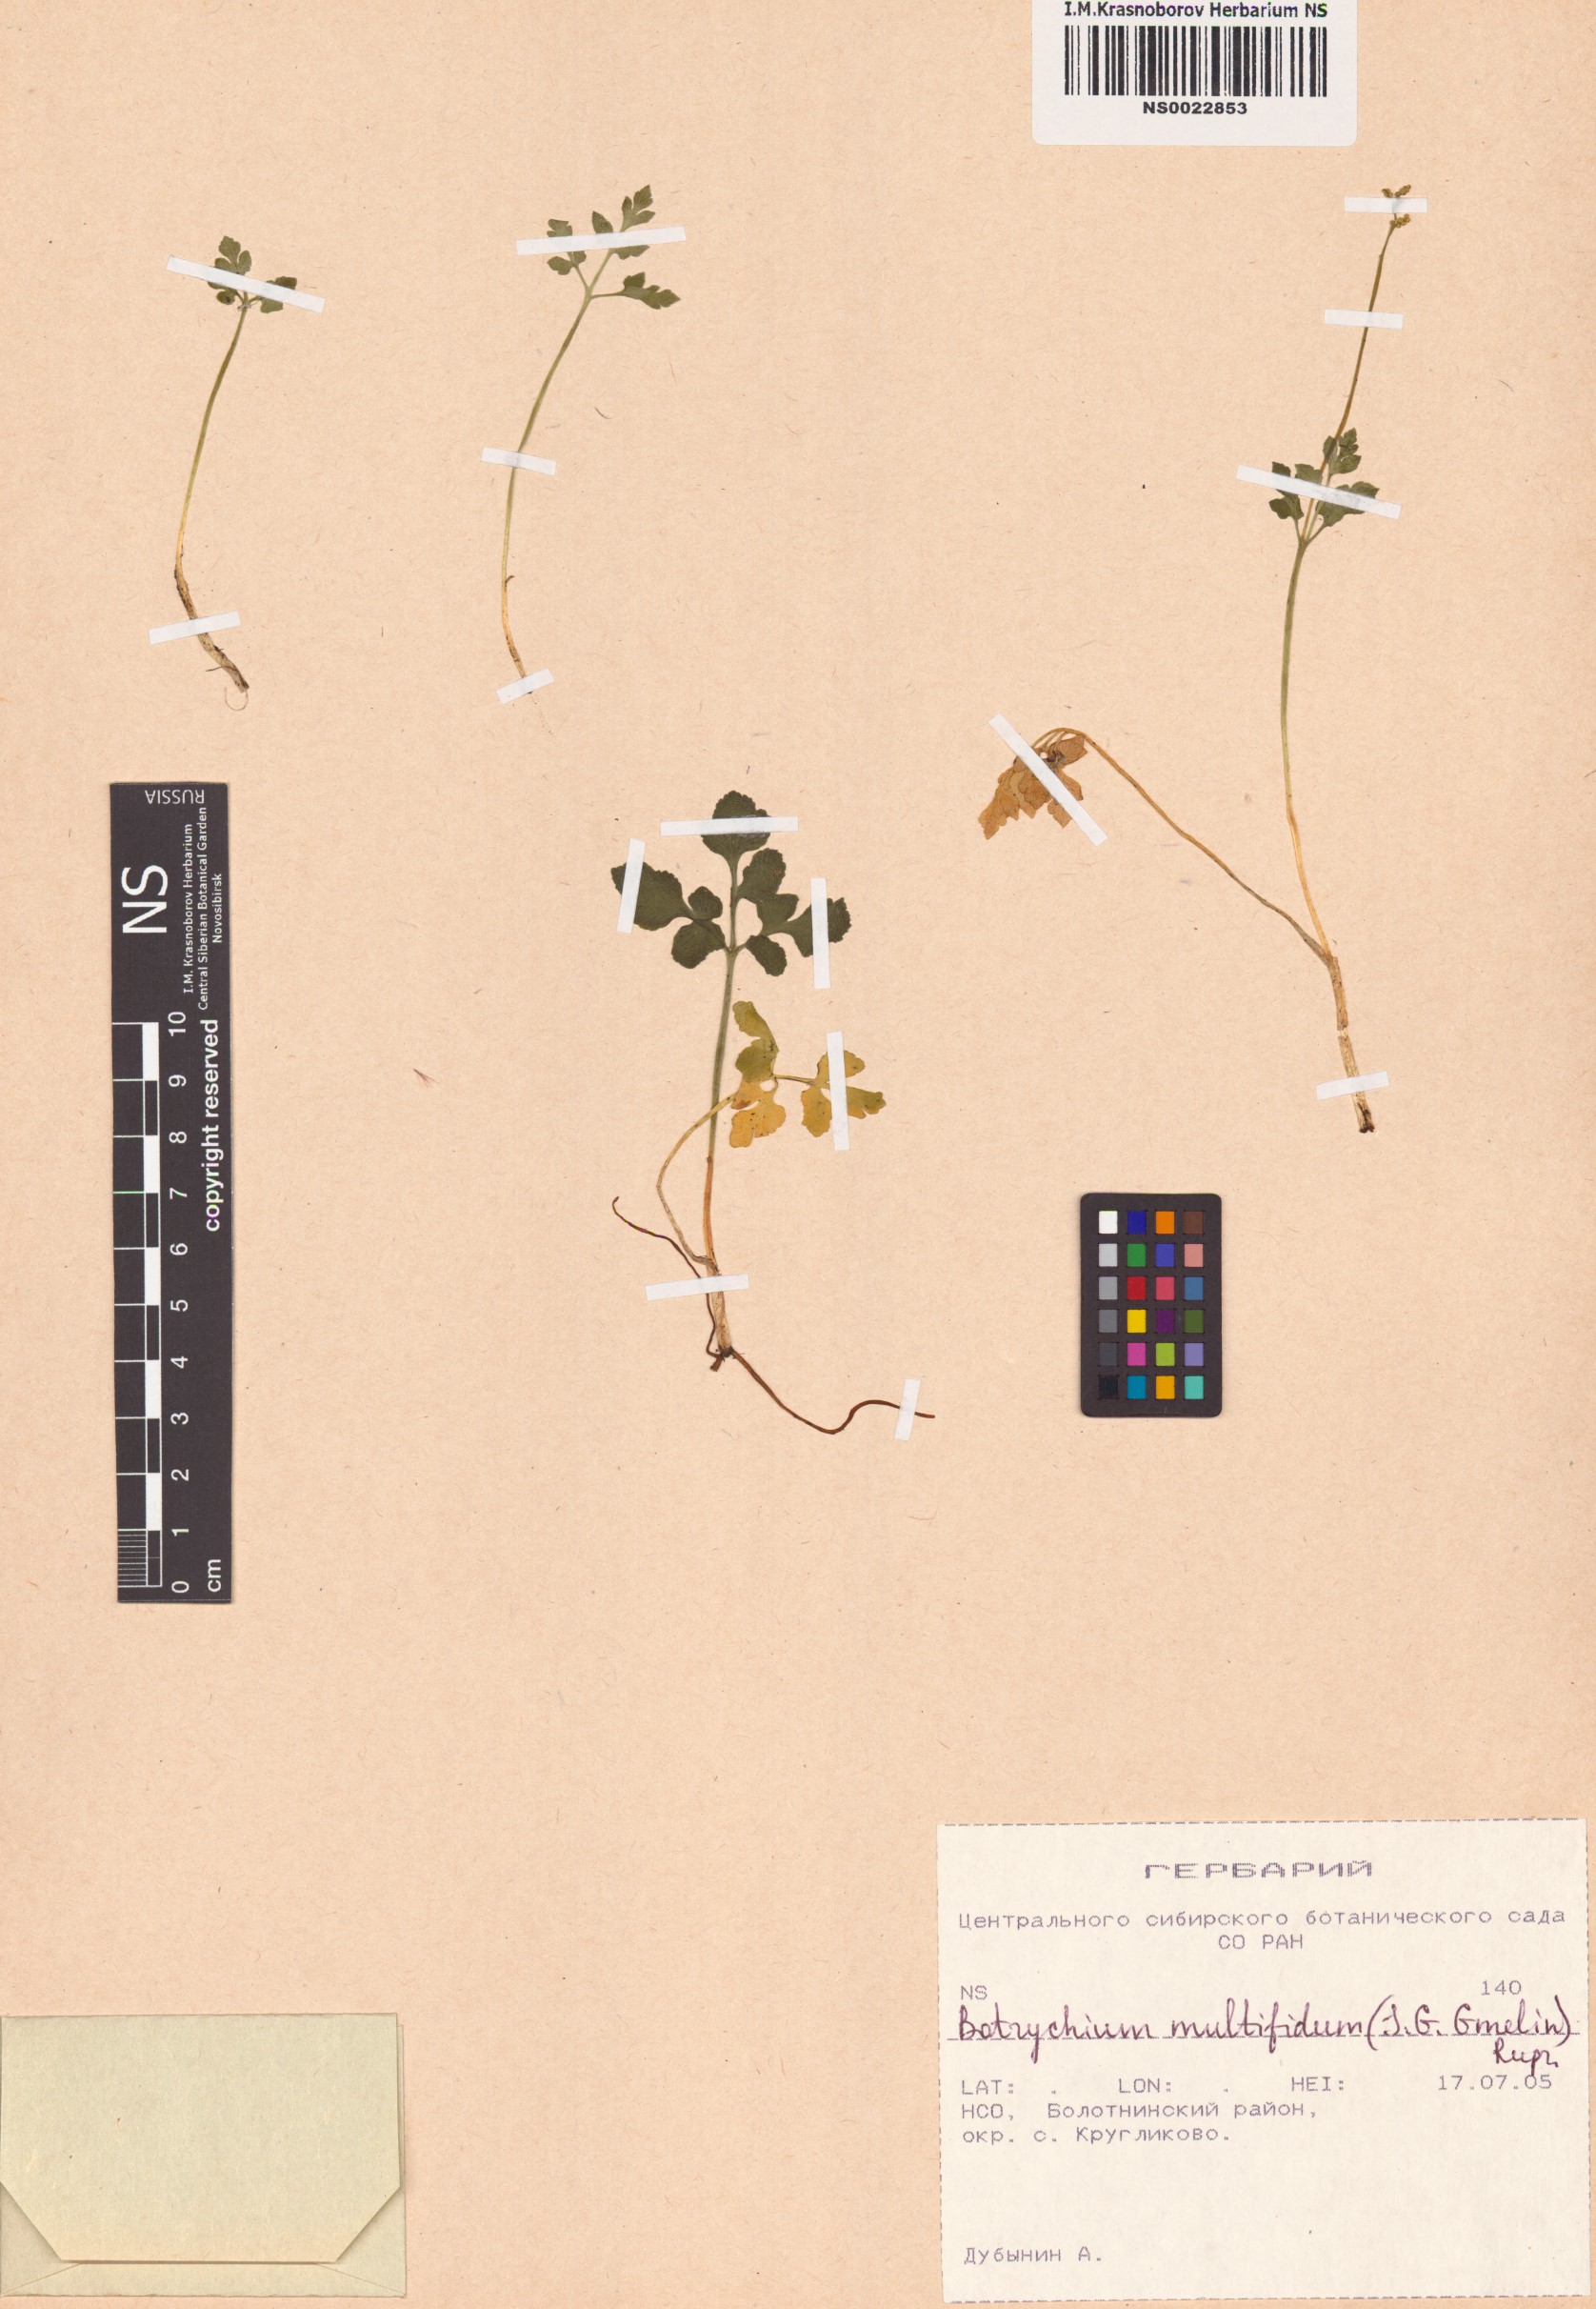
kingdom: Plantae
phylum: Tracheophyta
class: Polypodiopsida
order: Ophioglossales
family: Ophioglossaceae
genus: Sceptridium
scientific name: Sceptridium multifidum
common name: Leathery grape fern
